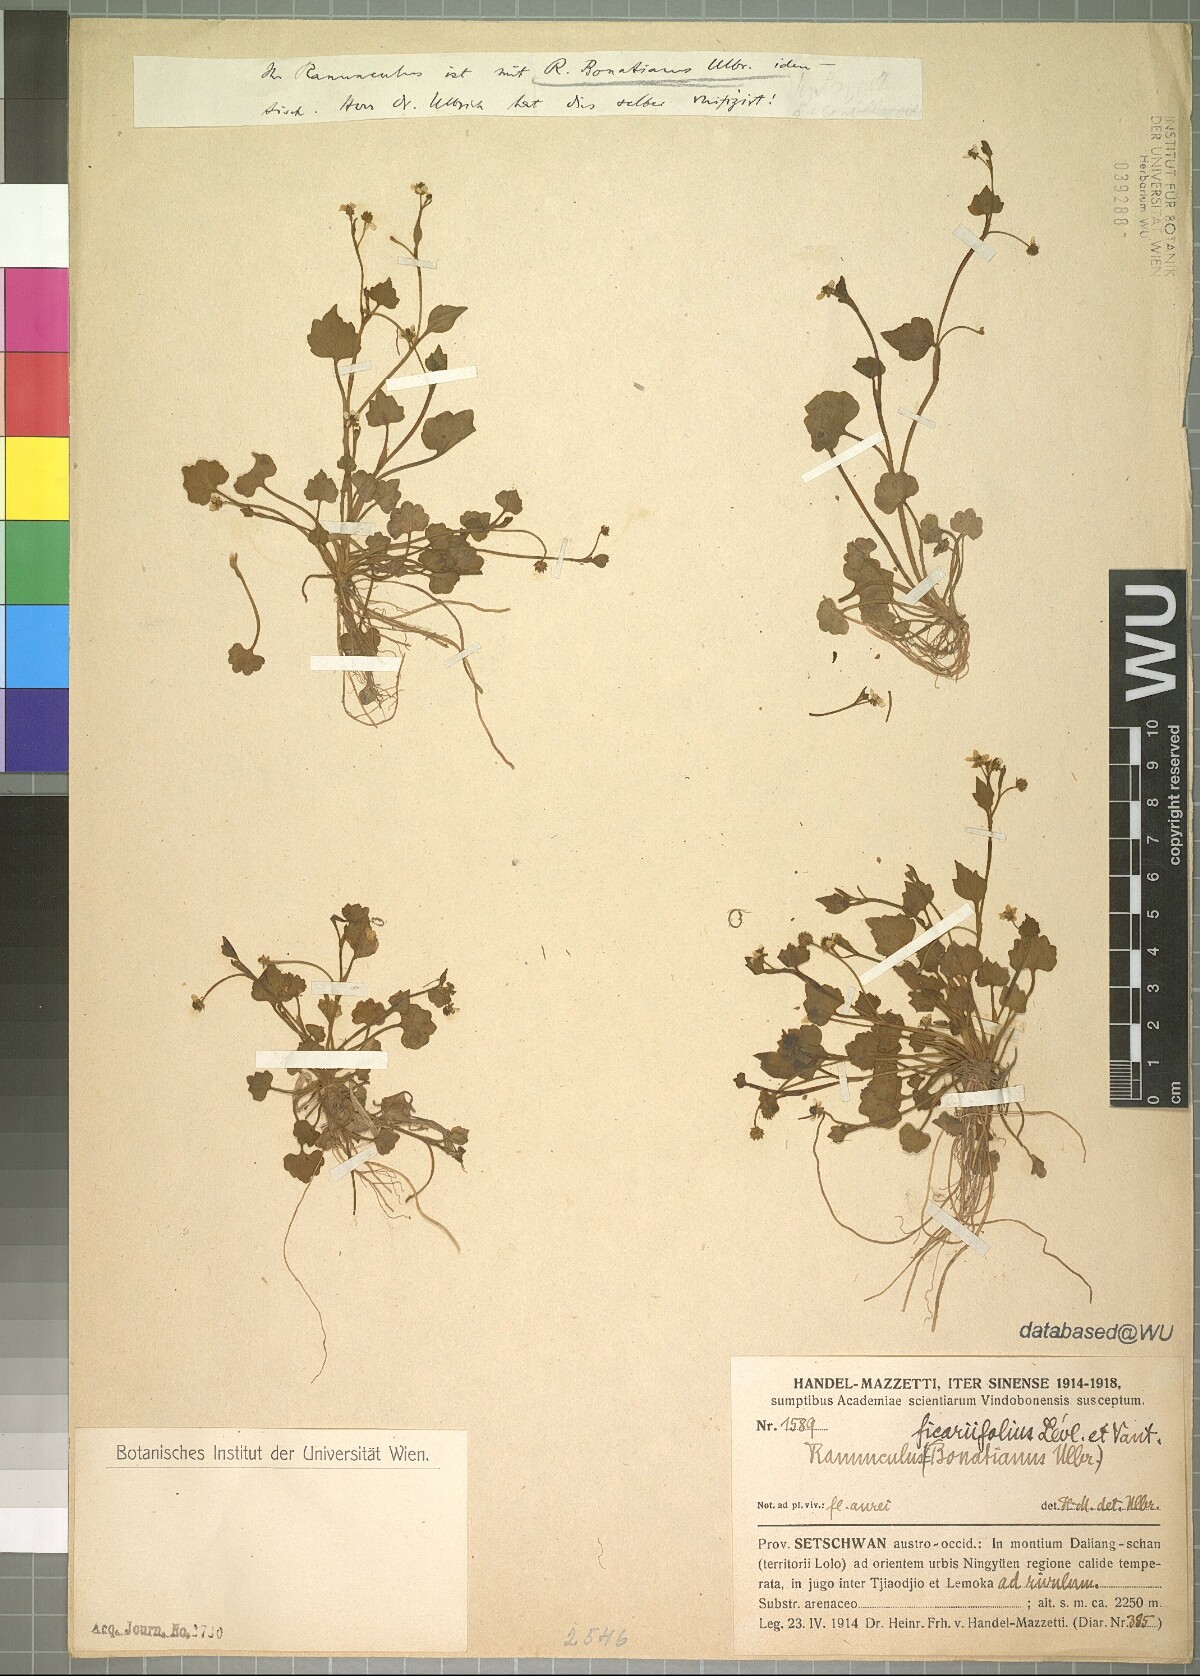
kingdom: Plantae
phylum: Tracheophyta
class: Magnoliopsida
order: Ranunculales
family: Ranunculaceae
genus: Ranunculus
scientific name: Ranunculus microphyllus
